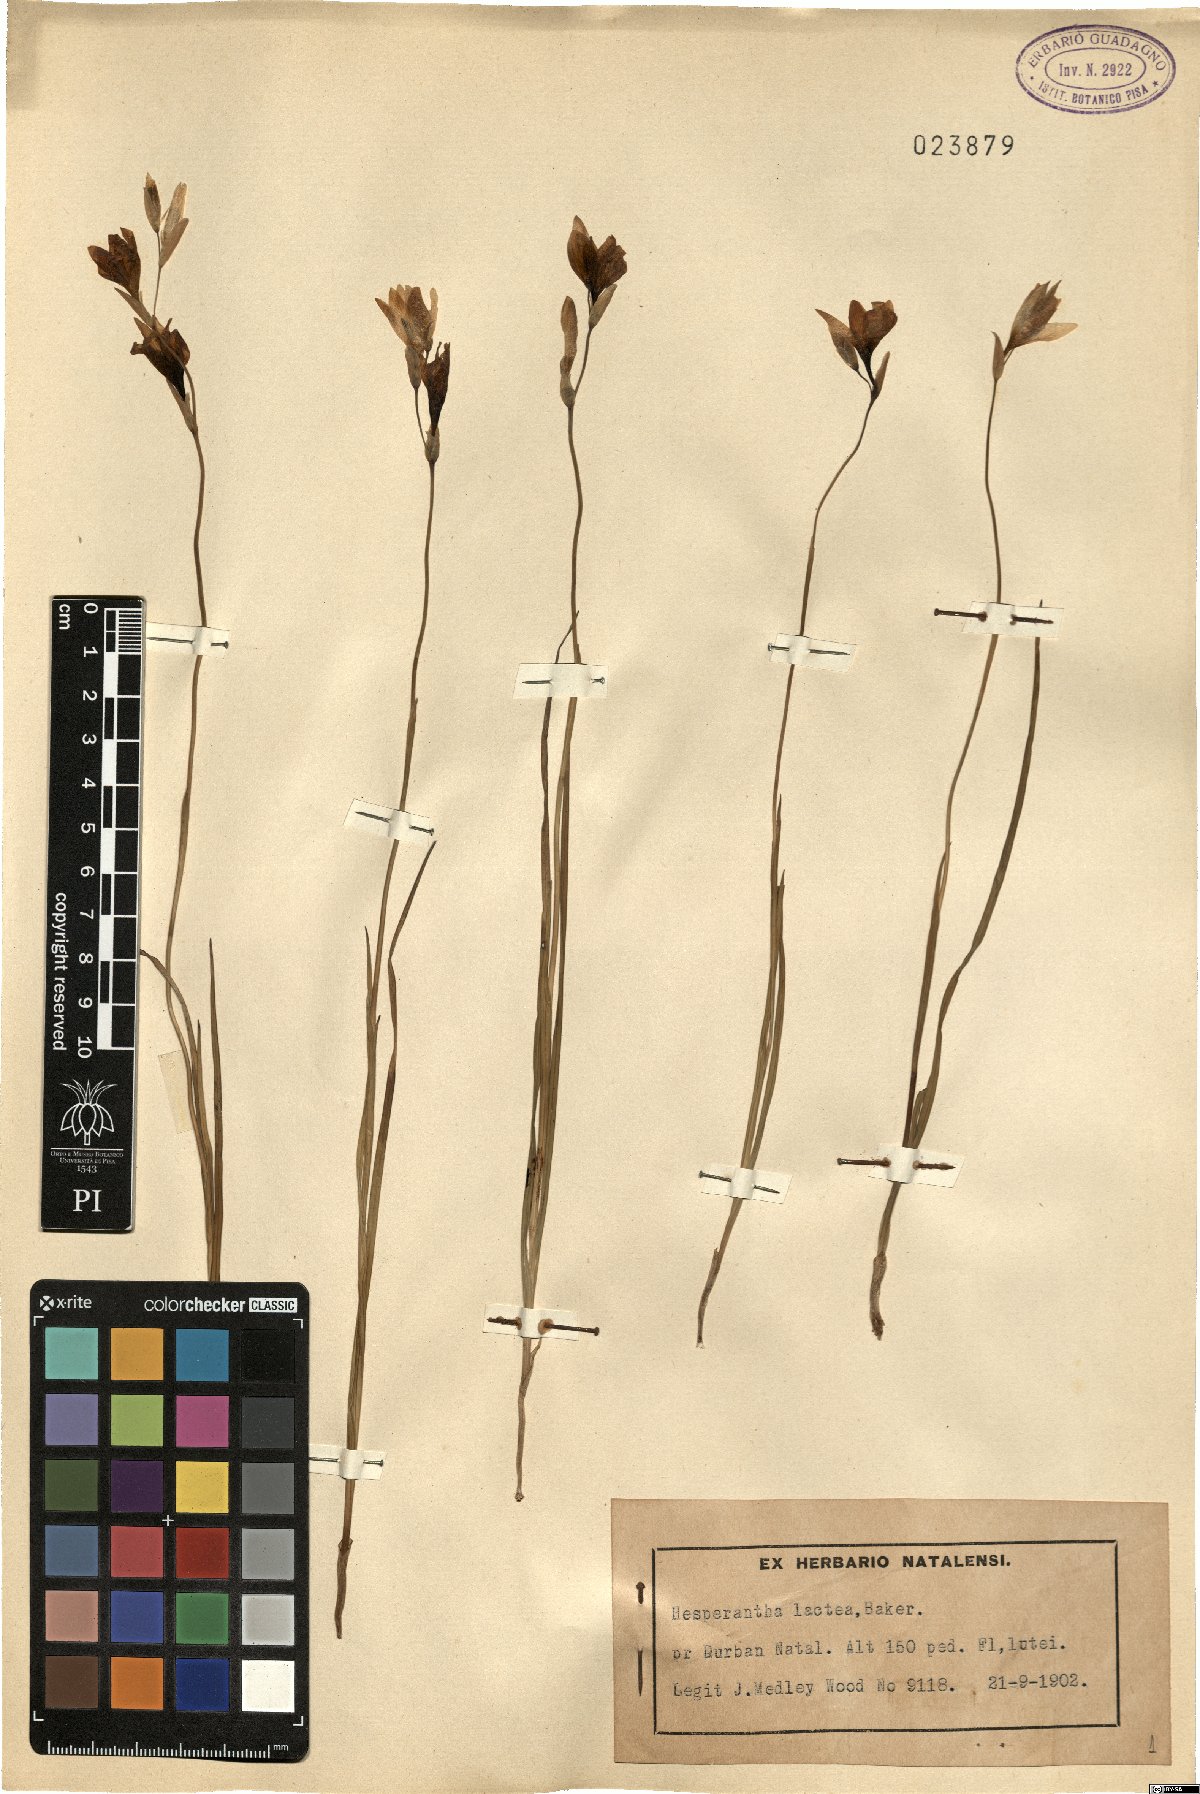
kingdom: Plantae
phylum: Tracheophyta
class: Liliopsida
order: Asparagales
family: Iridaceae
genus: Hesperantha
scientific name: Hesperantha lactea
